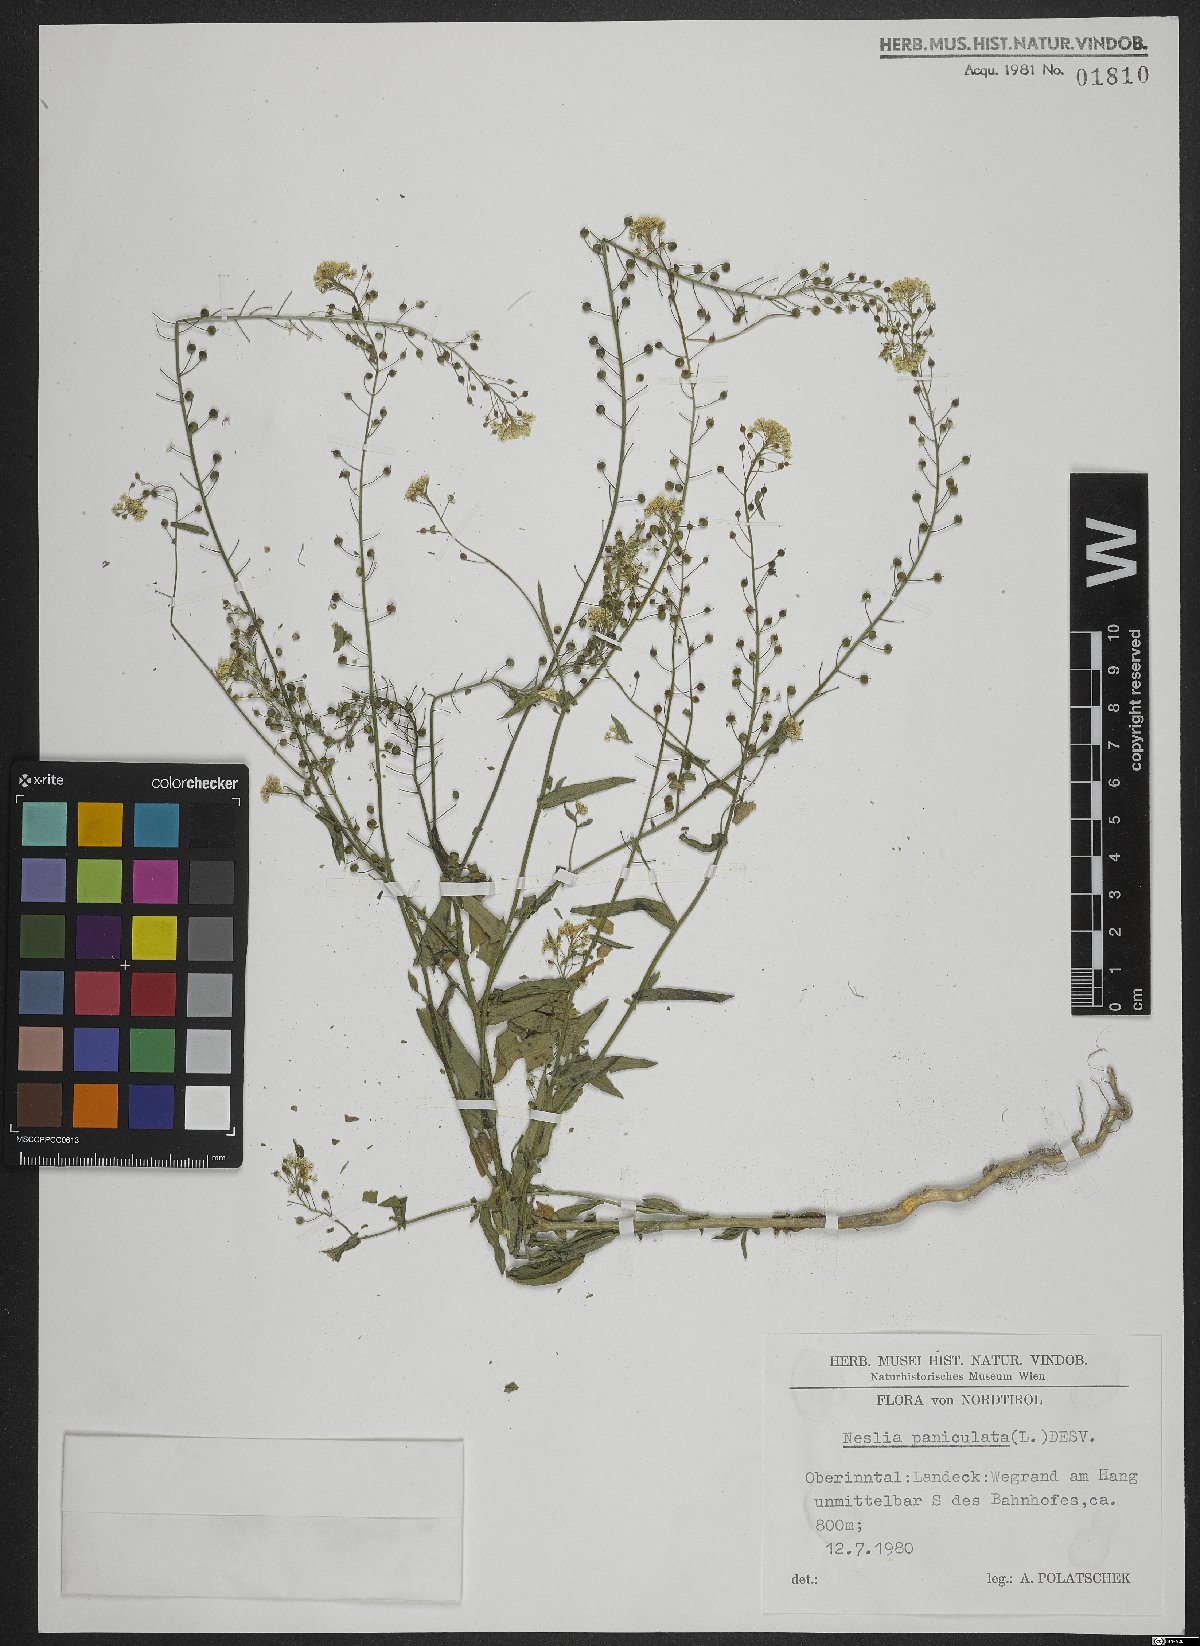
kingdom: Plantae
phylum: Tracheophyta
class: Magnoliopsida
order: Brassicales
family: Brassicaceae
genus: Neslia
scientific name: Neslia paniculata
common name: Ball mustard
